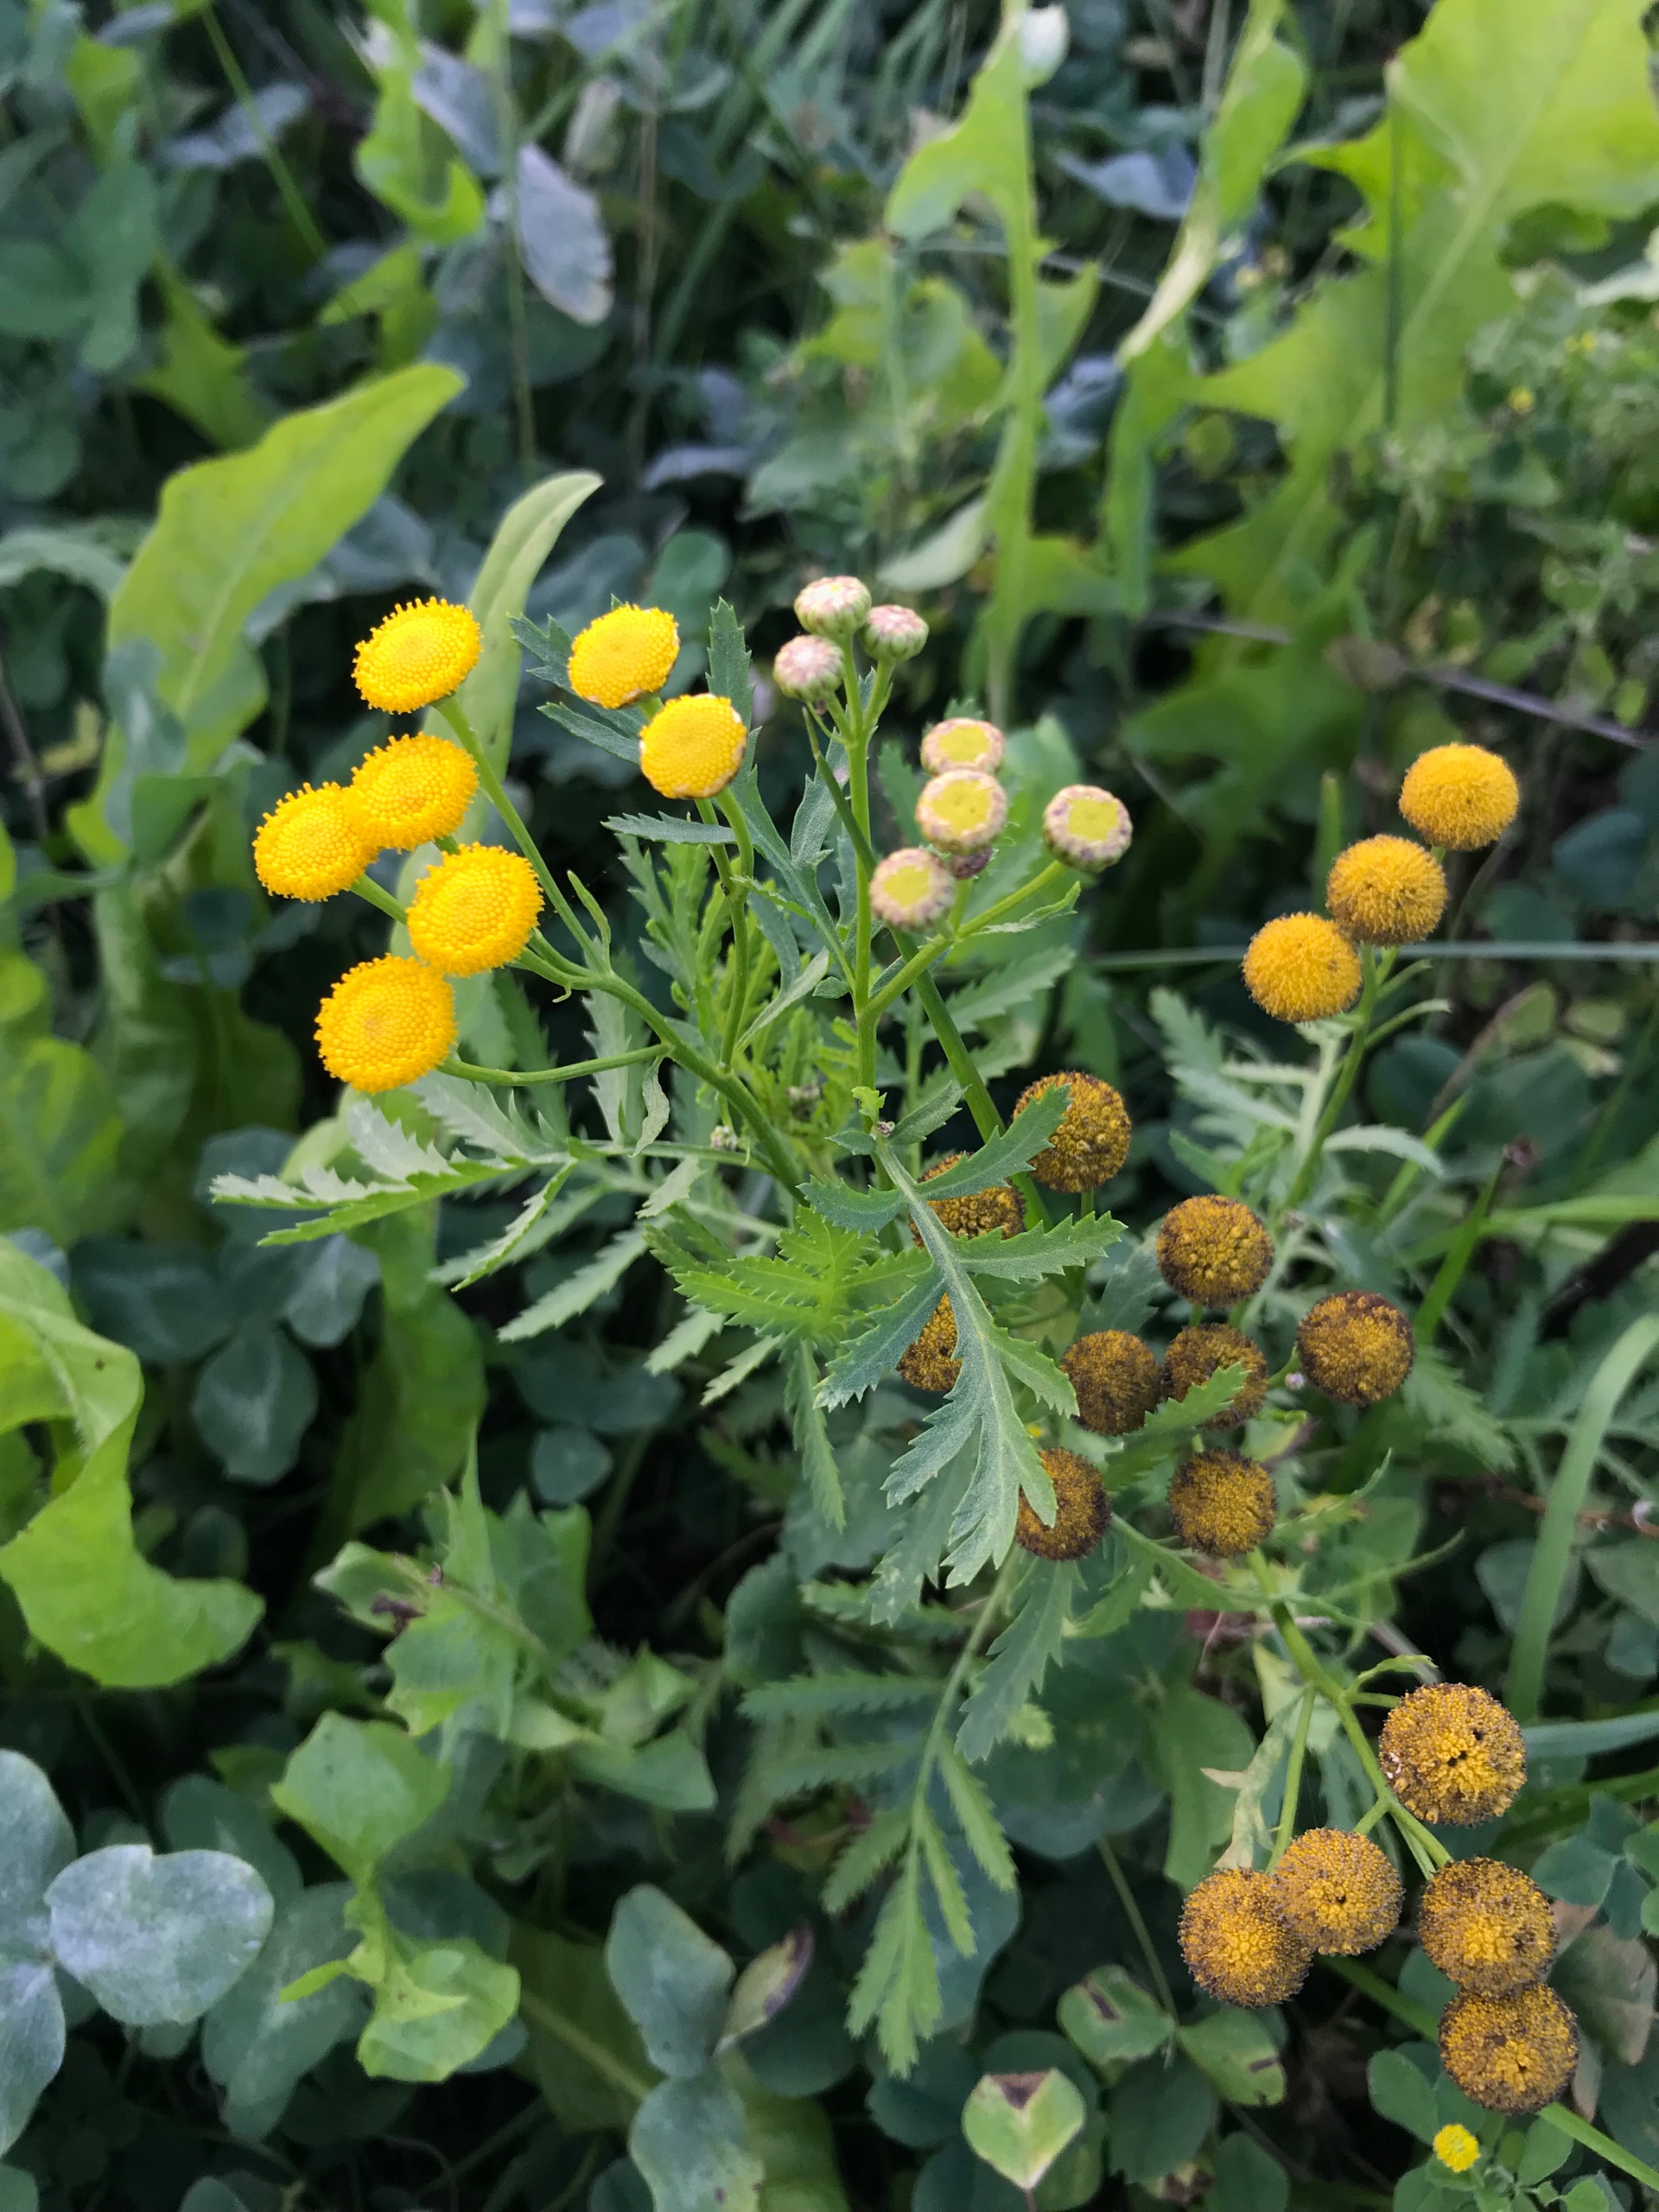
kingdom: Plantae
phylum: Tracheophyta
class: Magnoliopsida
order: Asterales
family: Asteraceae
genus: Tanacetum
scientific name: Tanacetum vulgare
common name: Rejnfan
